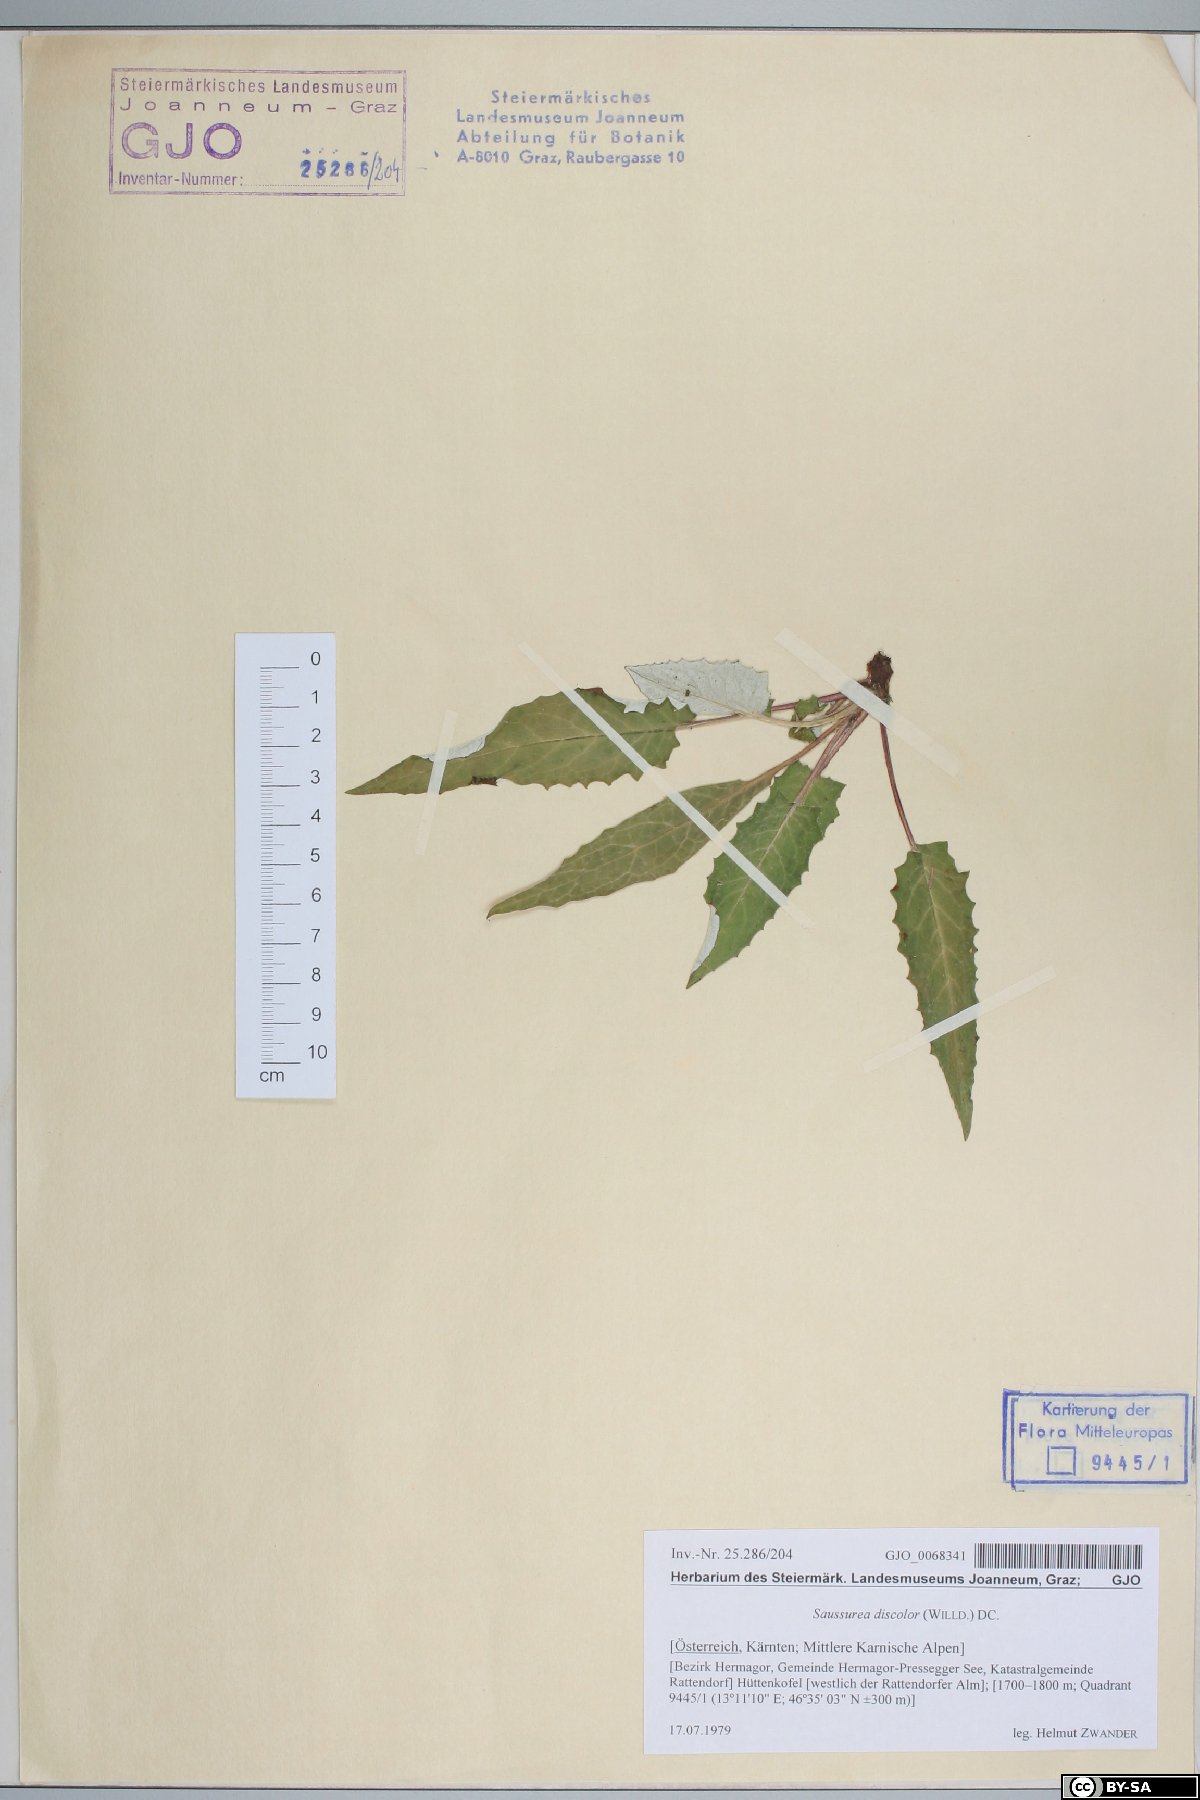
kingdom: Plantae
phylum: Tracheophyta
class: Magnoliopsida
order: Asterales
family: Asteraceae
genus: Saussurea
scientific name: Saussurea discolor
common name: Heart-leaved saussurea
